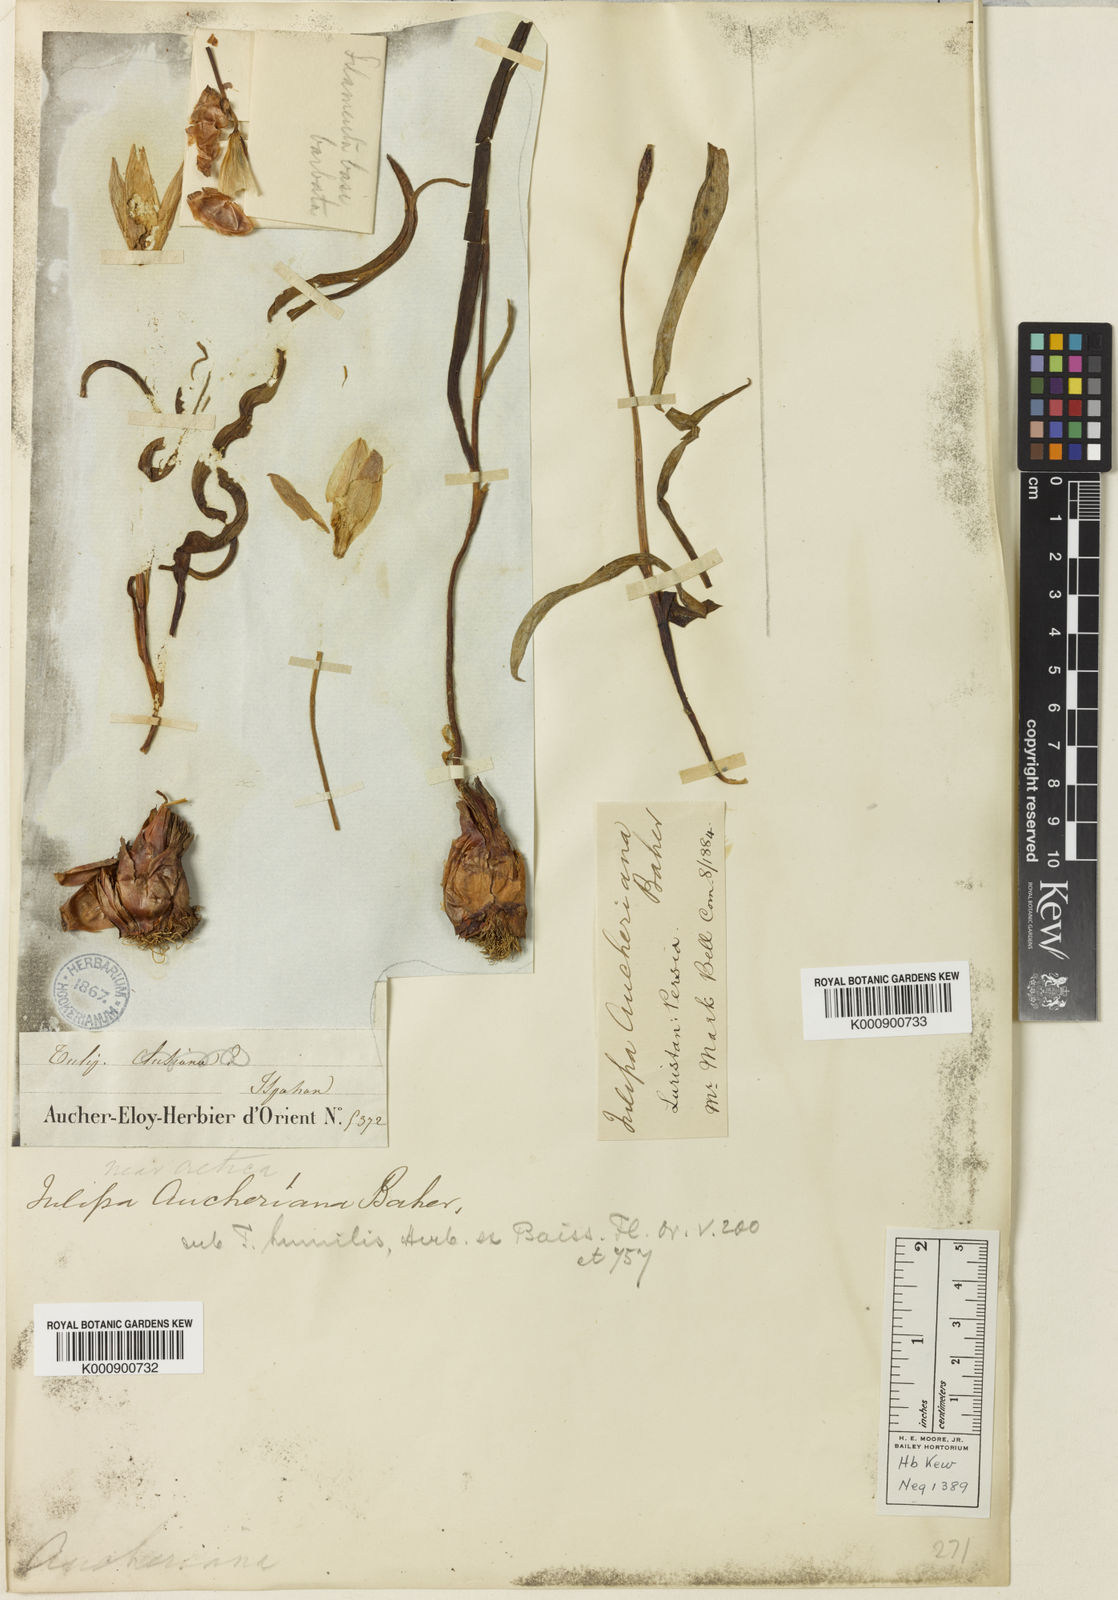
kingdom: Plantae
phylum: Tracheophyta
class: Liliopsida
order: Liliales
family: Liliaceae
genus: Tulipa
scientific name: Tulipa humilis
